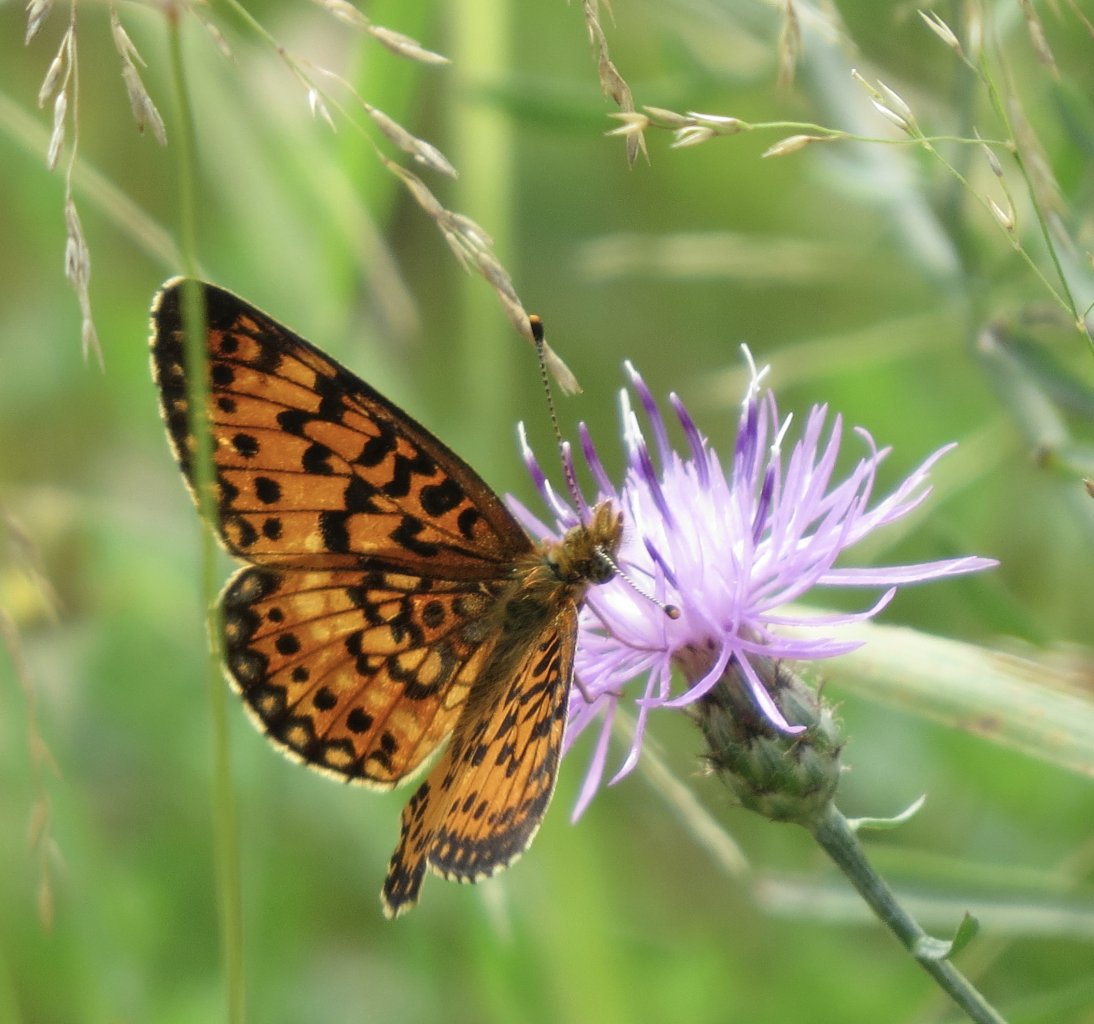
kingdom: Animalia
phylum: Arthropoda
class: Insecta
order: Lepidoptera
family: Nymphalidae
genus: Boloria
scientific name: Boloria selene
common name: Silver-bordered Fritillary
